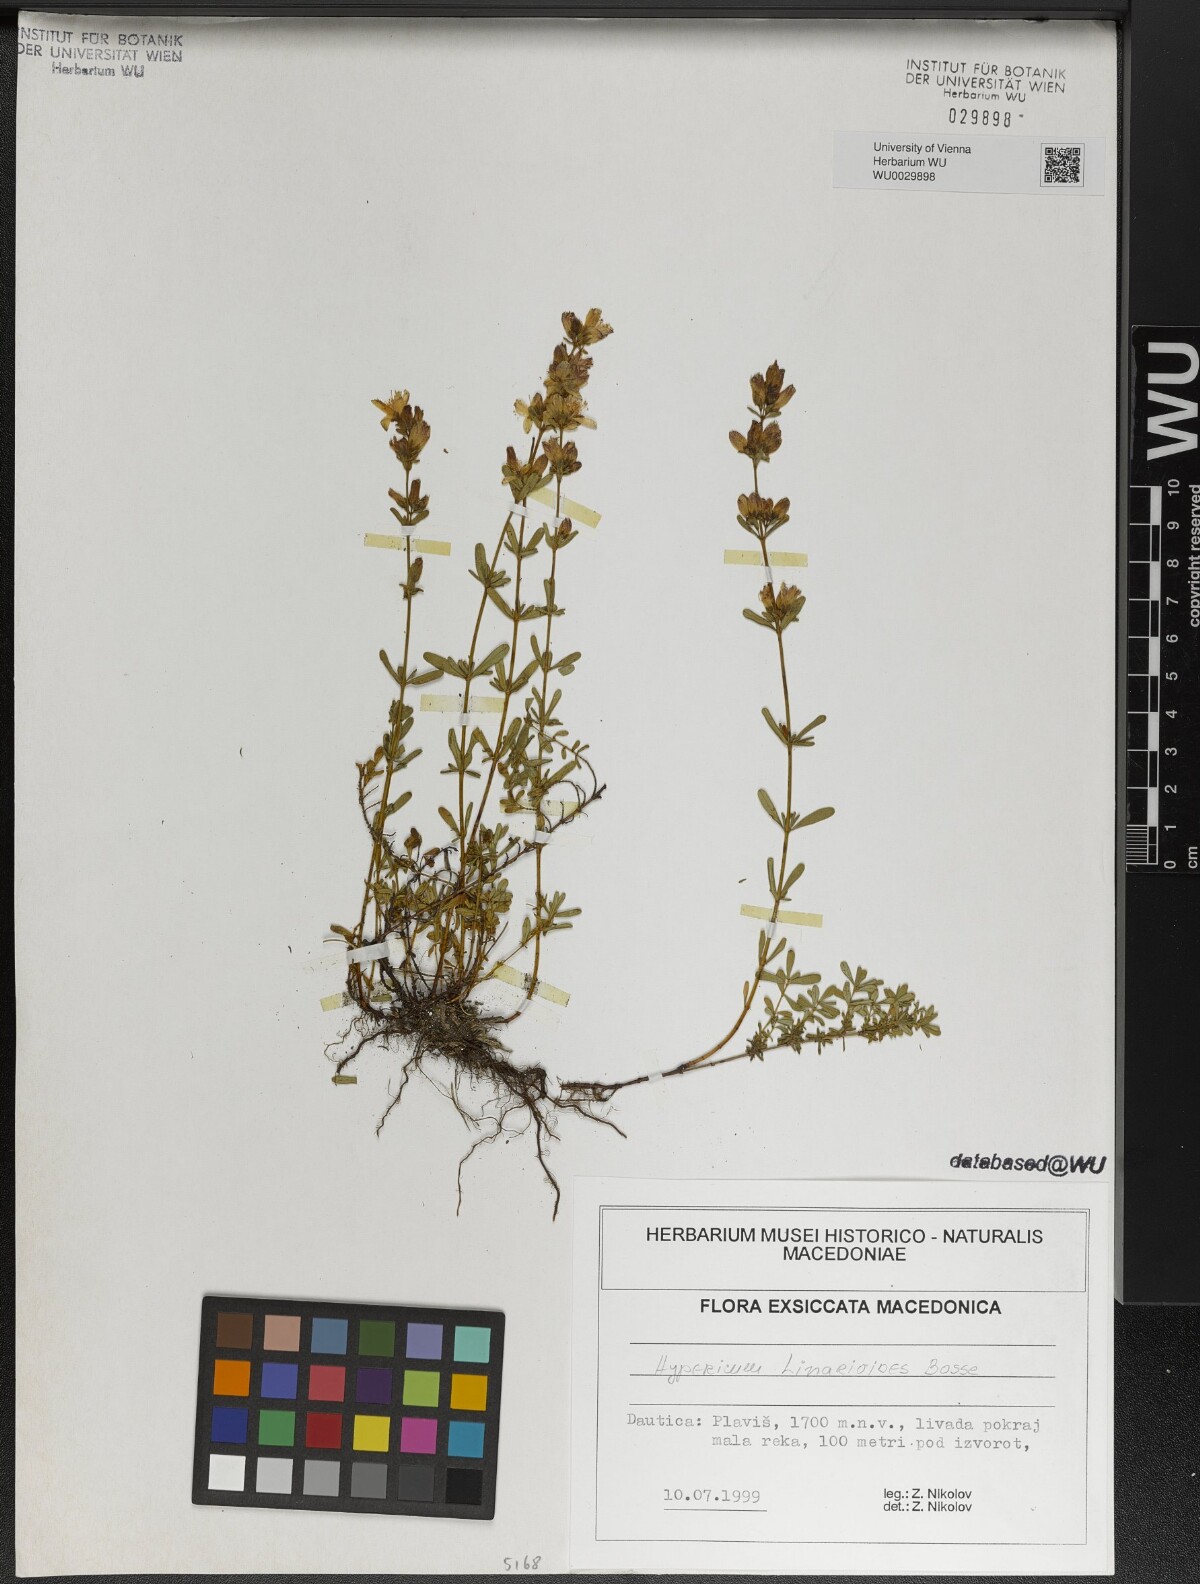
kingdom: Plantae
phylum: Tracheophyta
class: Magnoliopsida
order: Malpighiales
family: Hypericaceae
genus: Hypericum
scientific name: Hypericum linarioides
